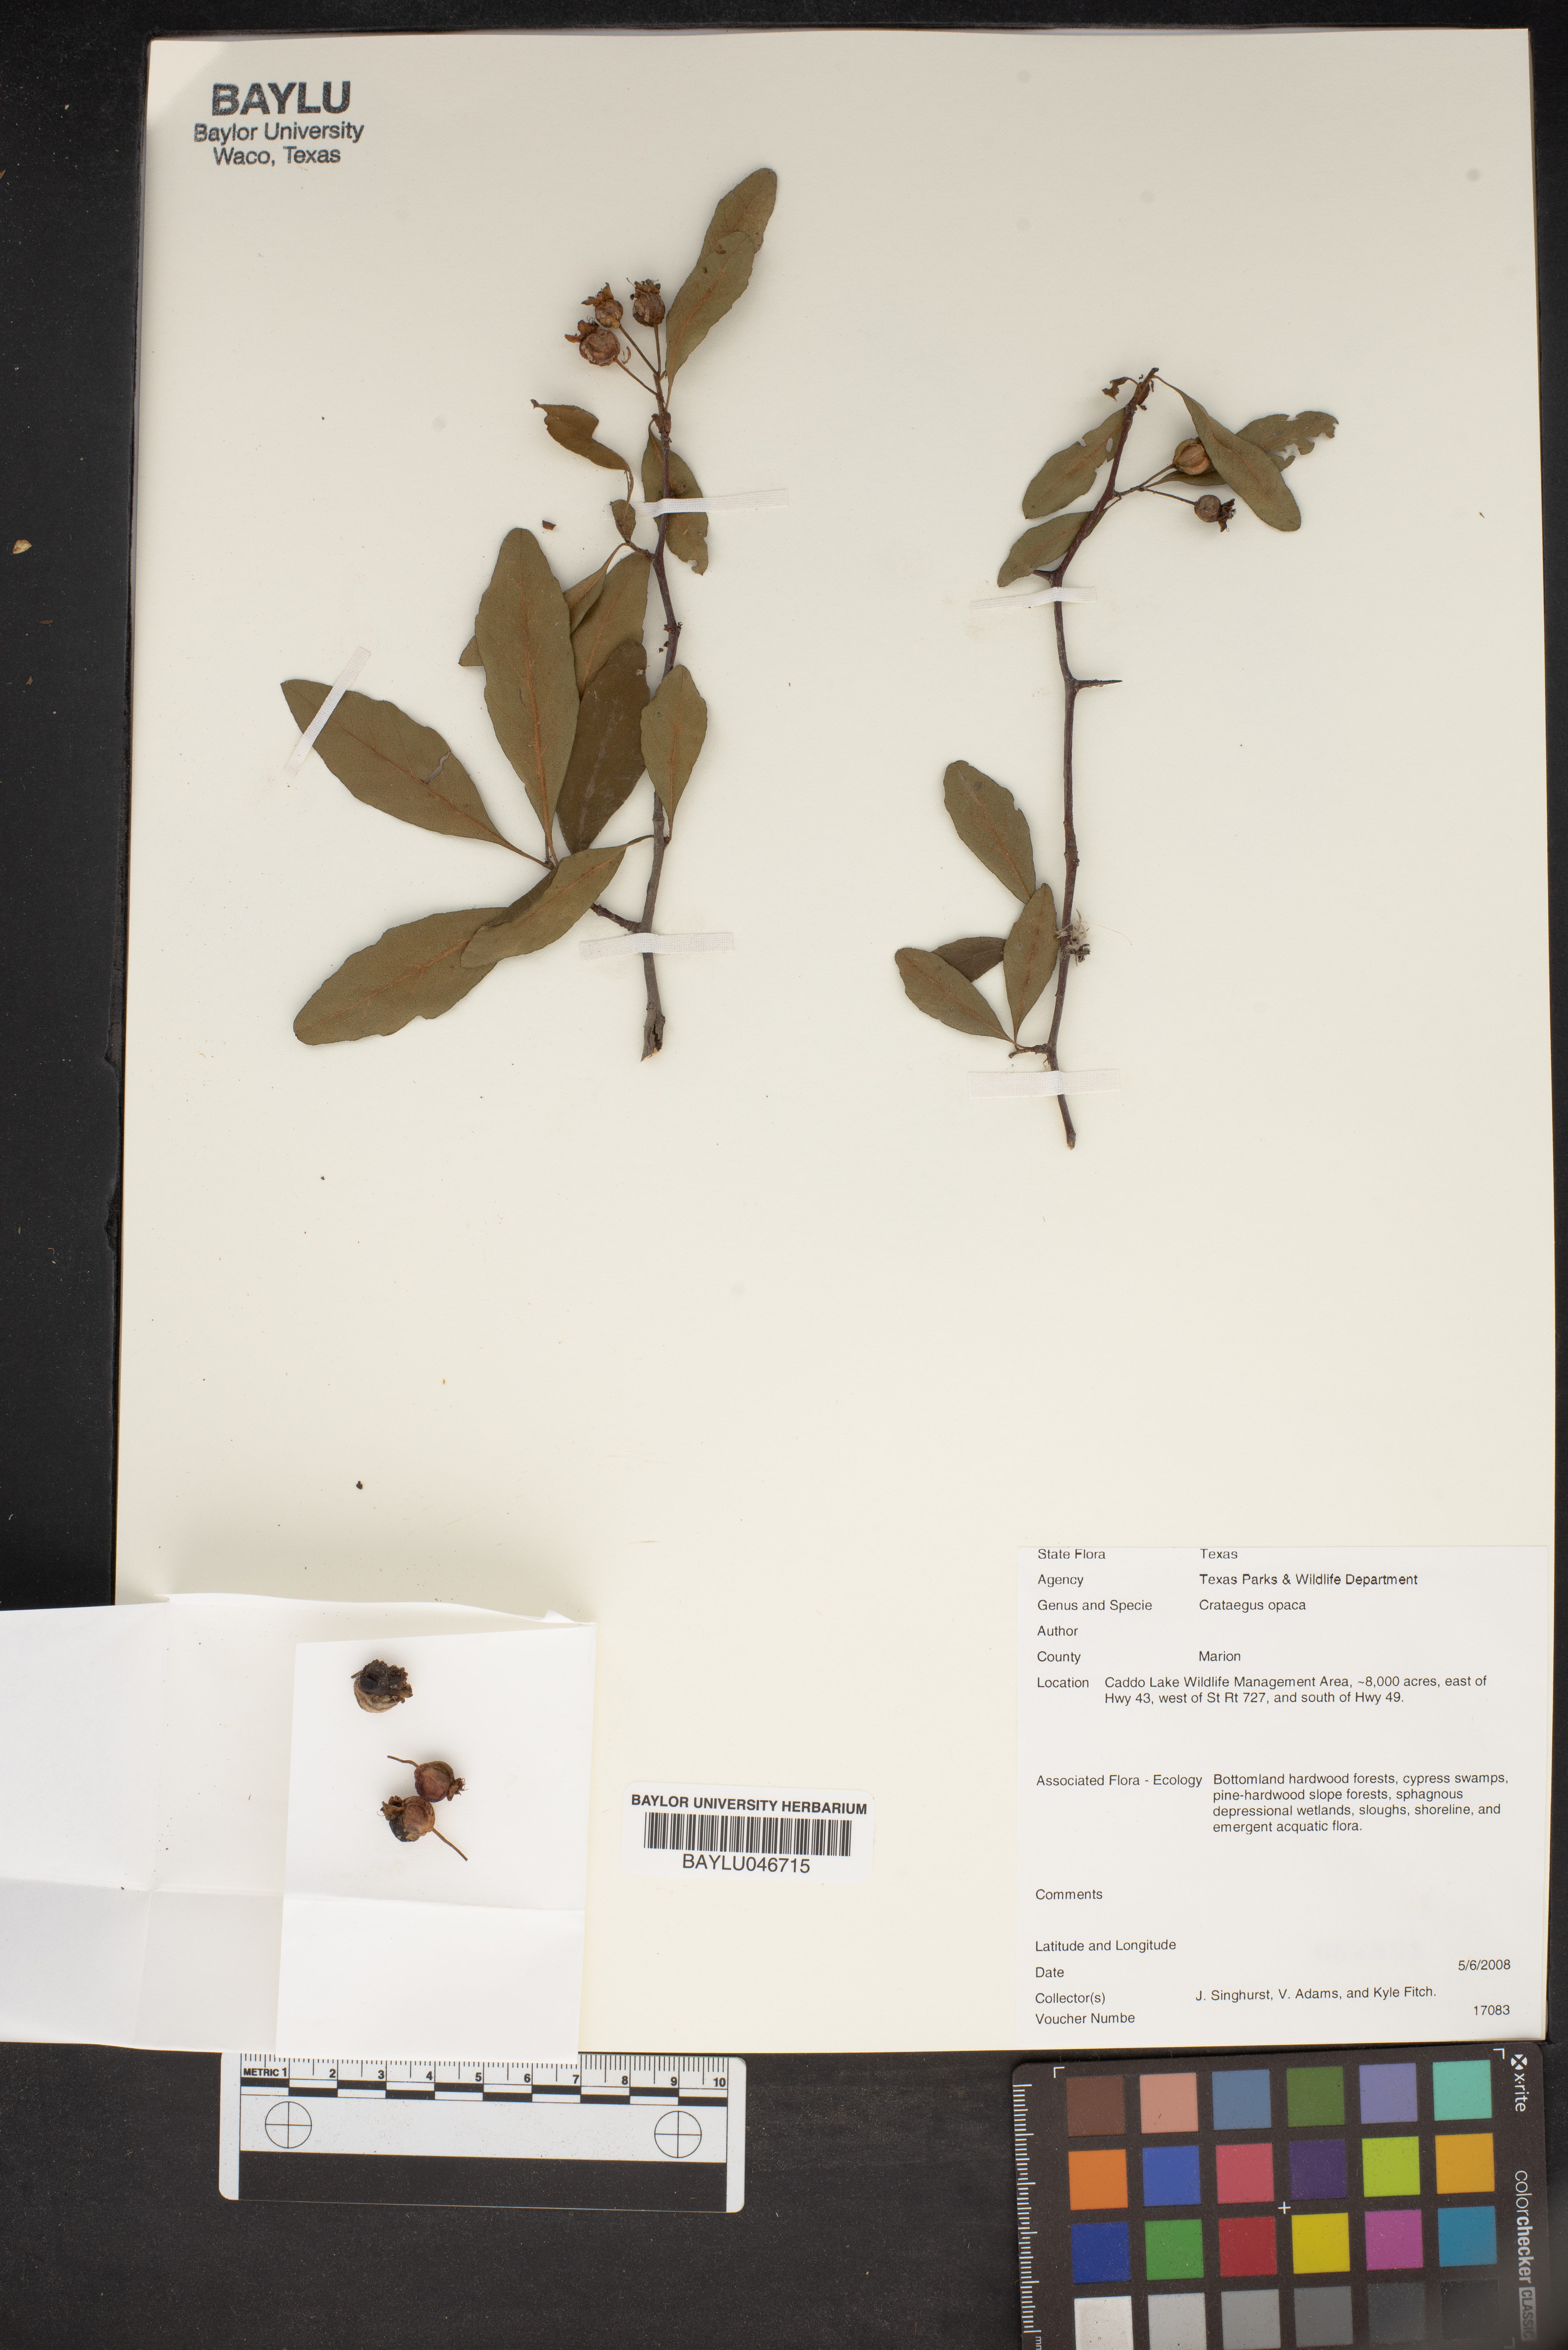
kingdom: Plantae
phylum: Tracheophyta
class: Magnoliopsida
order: Rosales
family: Rosaceae
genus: Crataegus
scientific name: Crataegus opaca
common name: Apple haw
